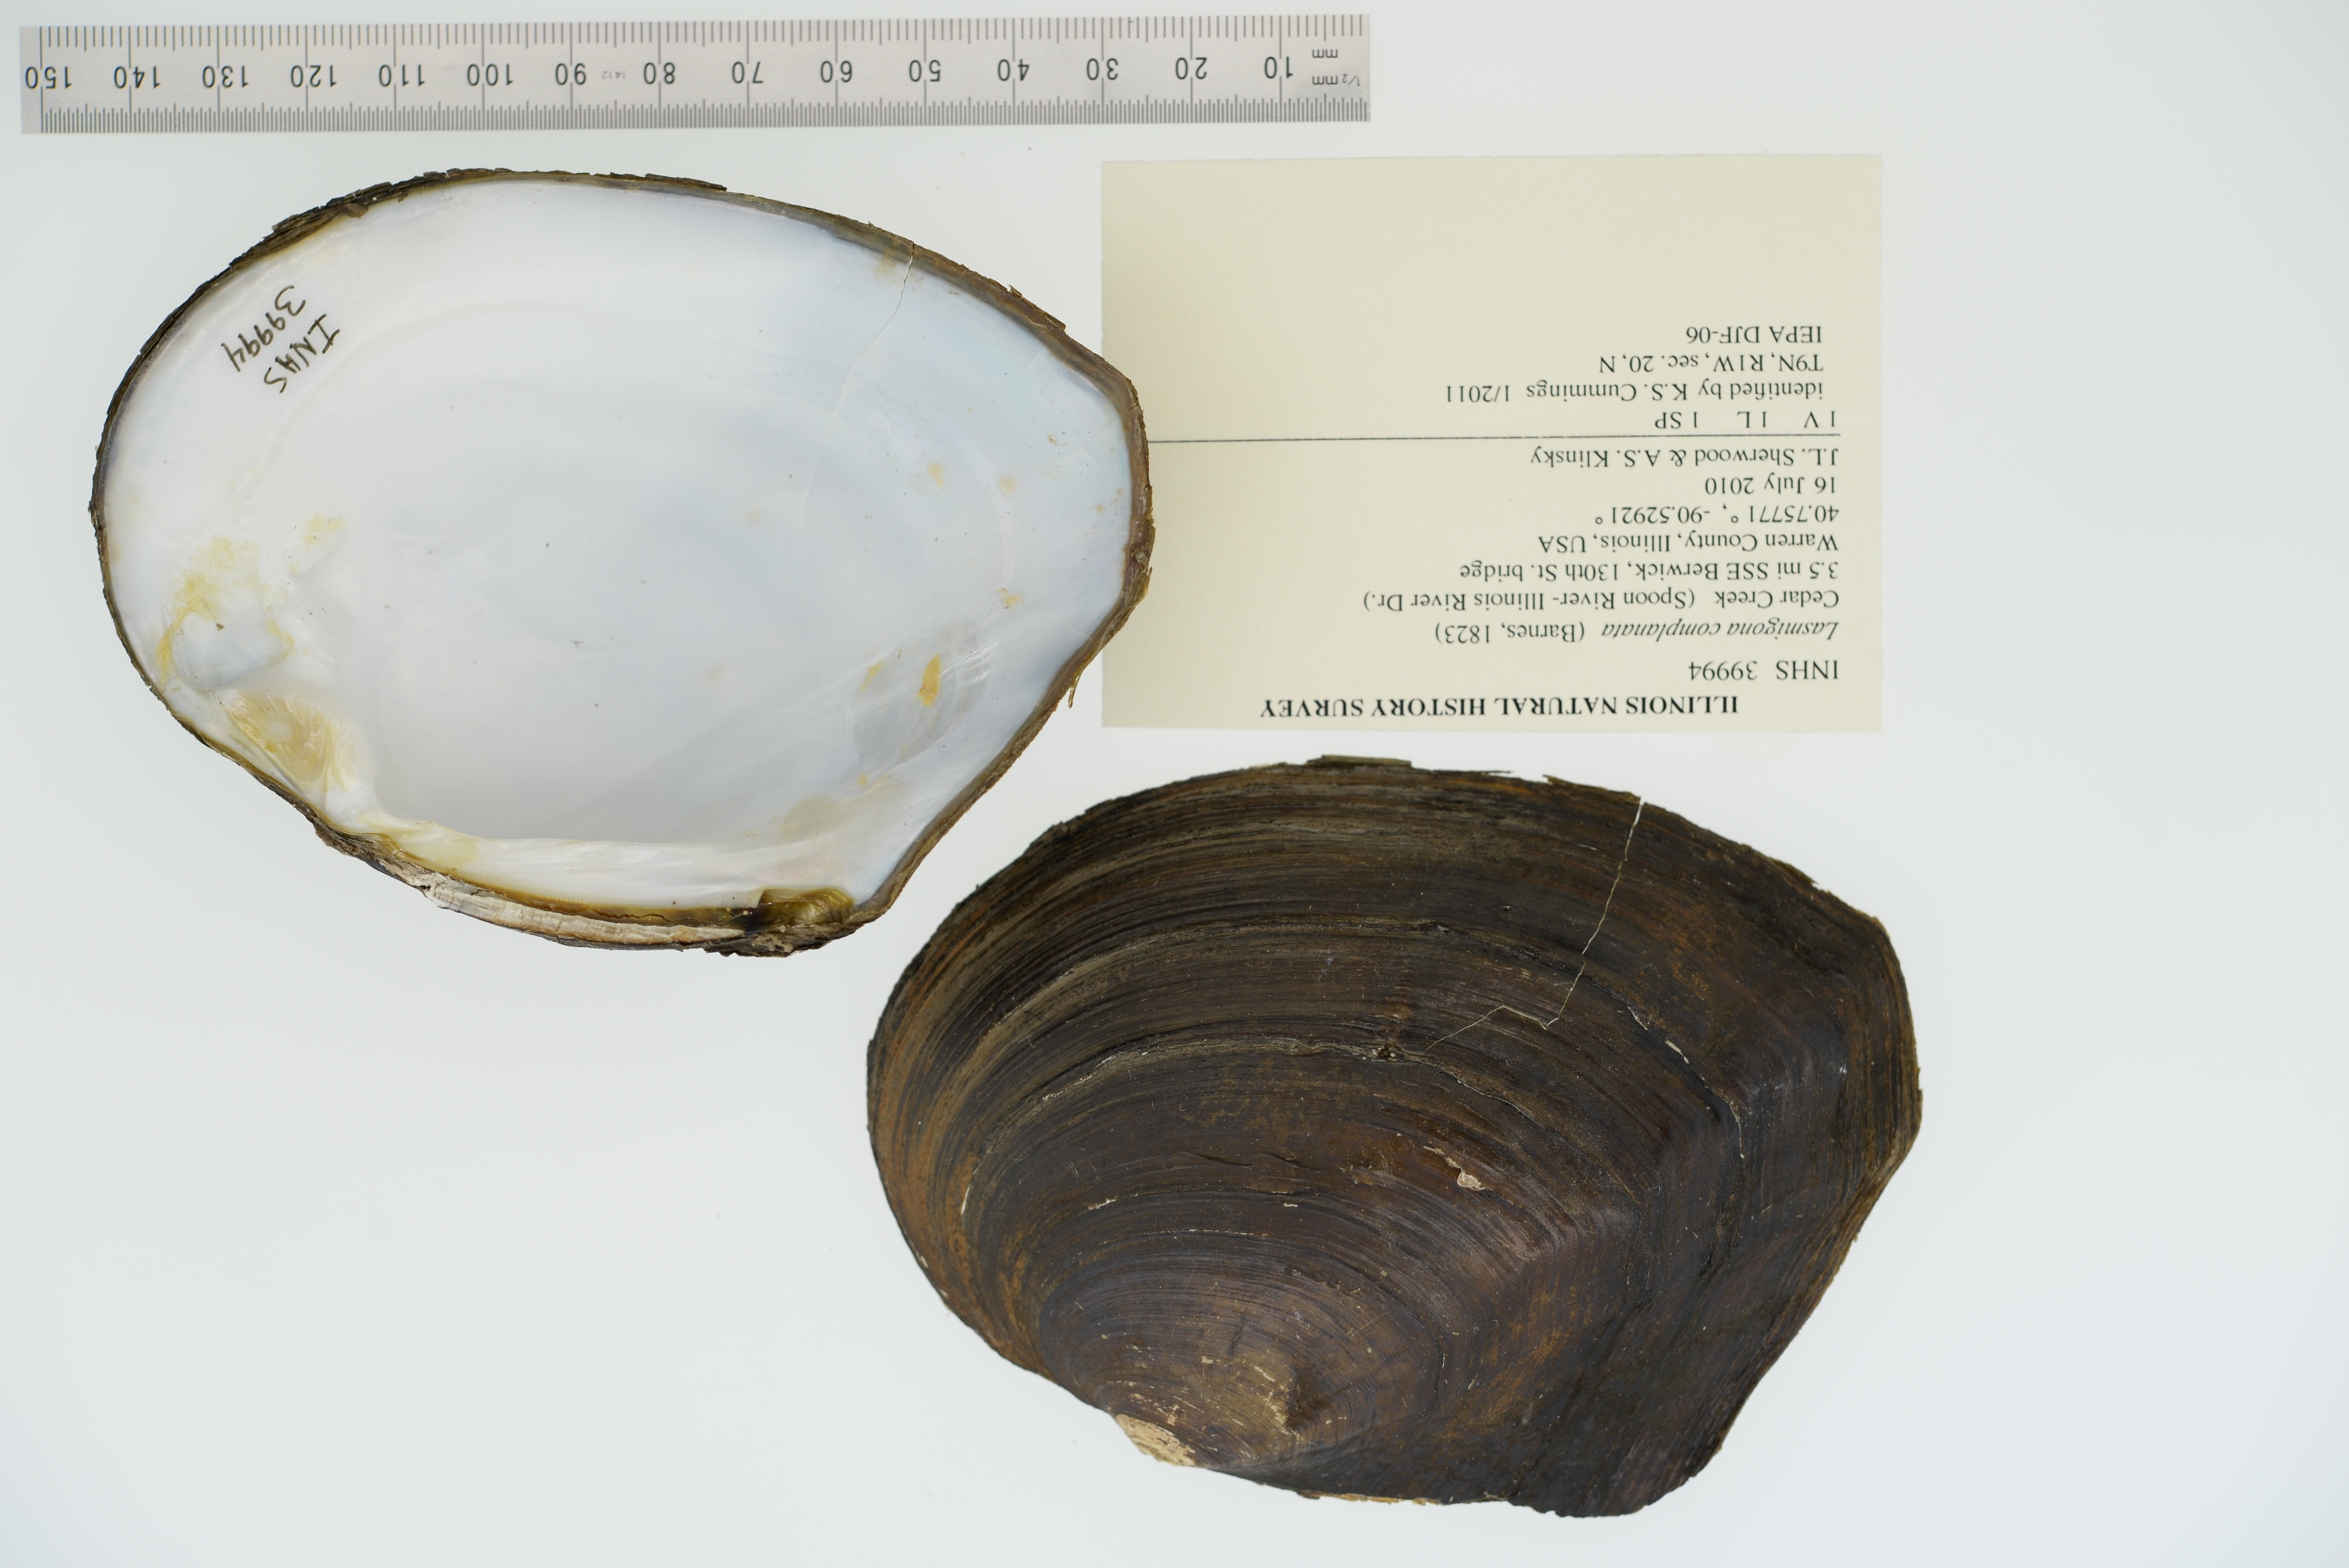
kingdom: Animalia
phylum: Mollusca
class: Bivalvia
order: Unionida
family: Unionidae
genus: Lasmigona
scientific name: Lasmigona complanata
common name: White heelsplitter
